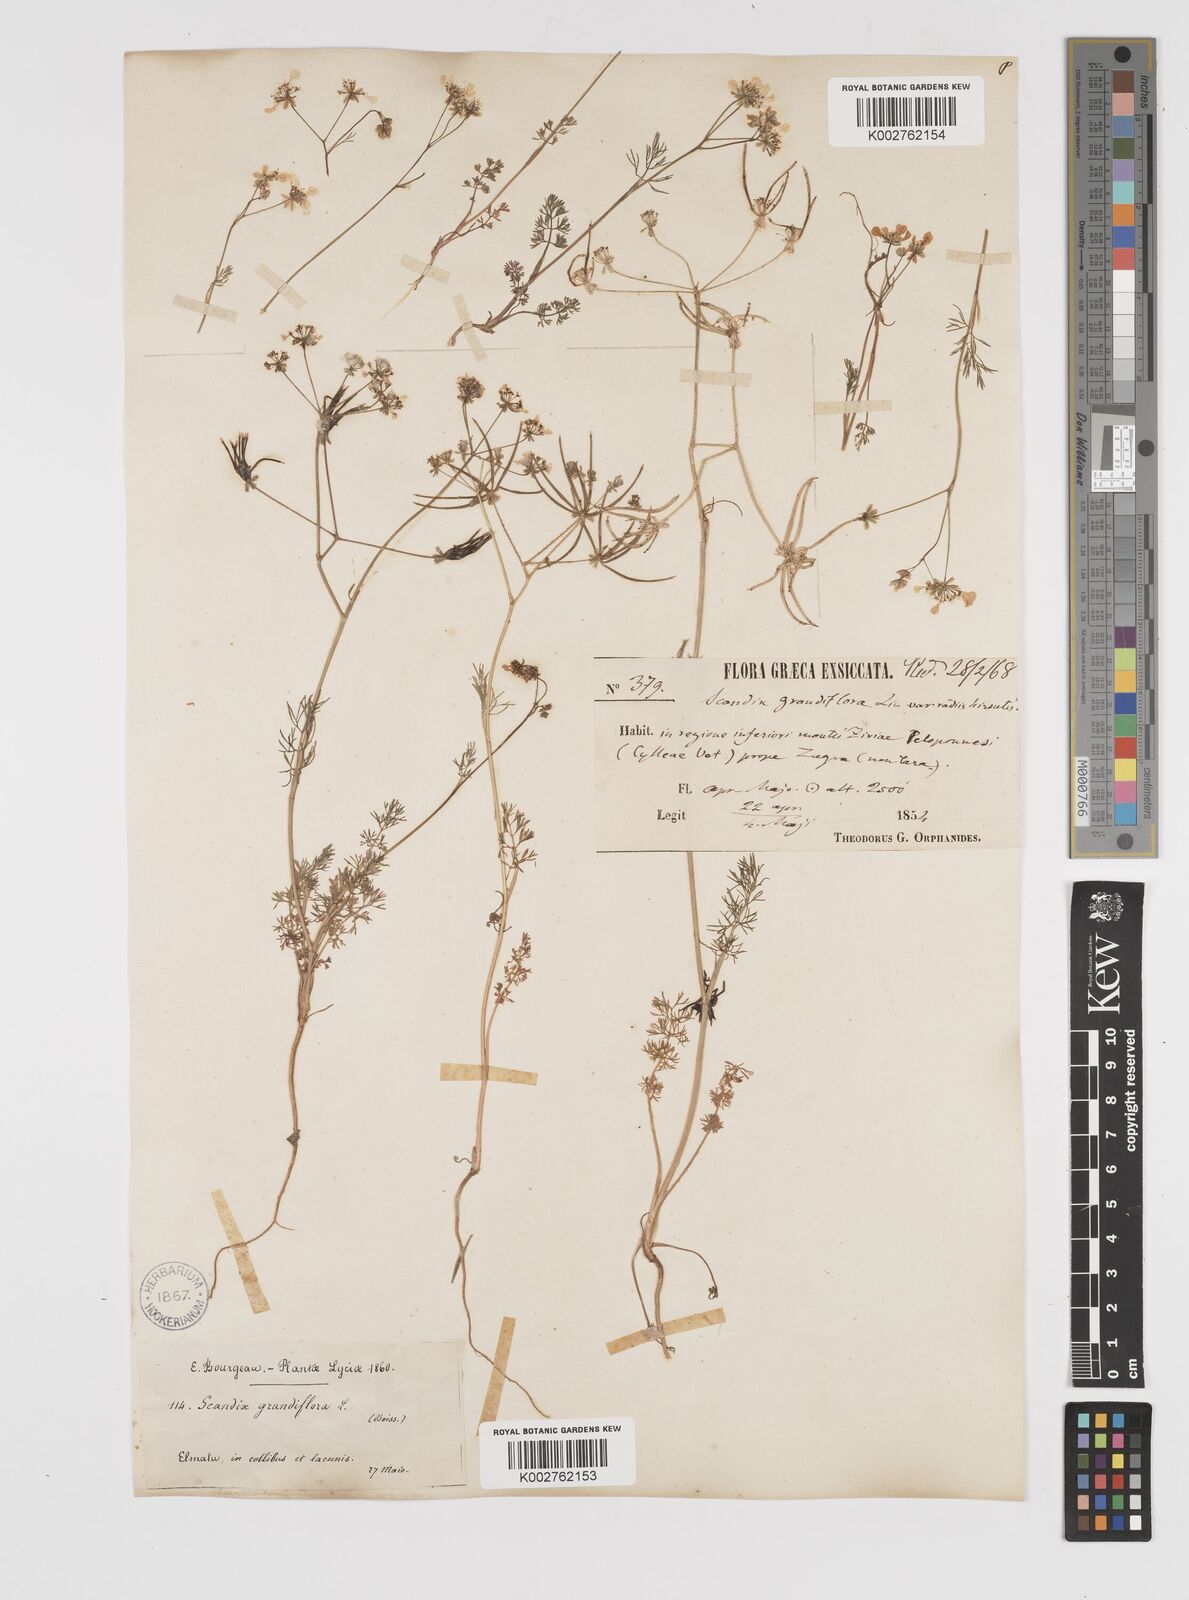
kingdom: Plantae
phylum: Tracheophyta
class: Magnoliopsida
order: Apiales
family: Apiaceae
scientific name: Apiaceae
